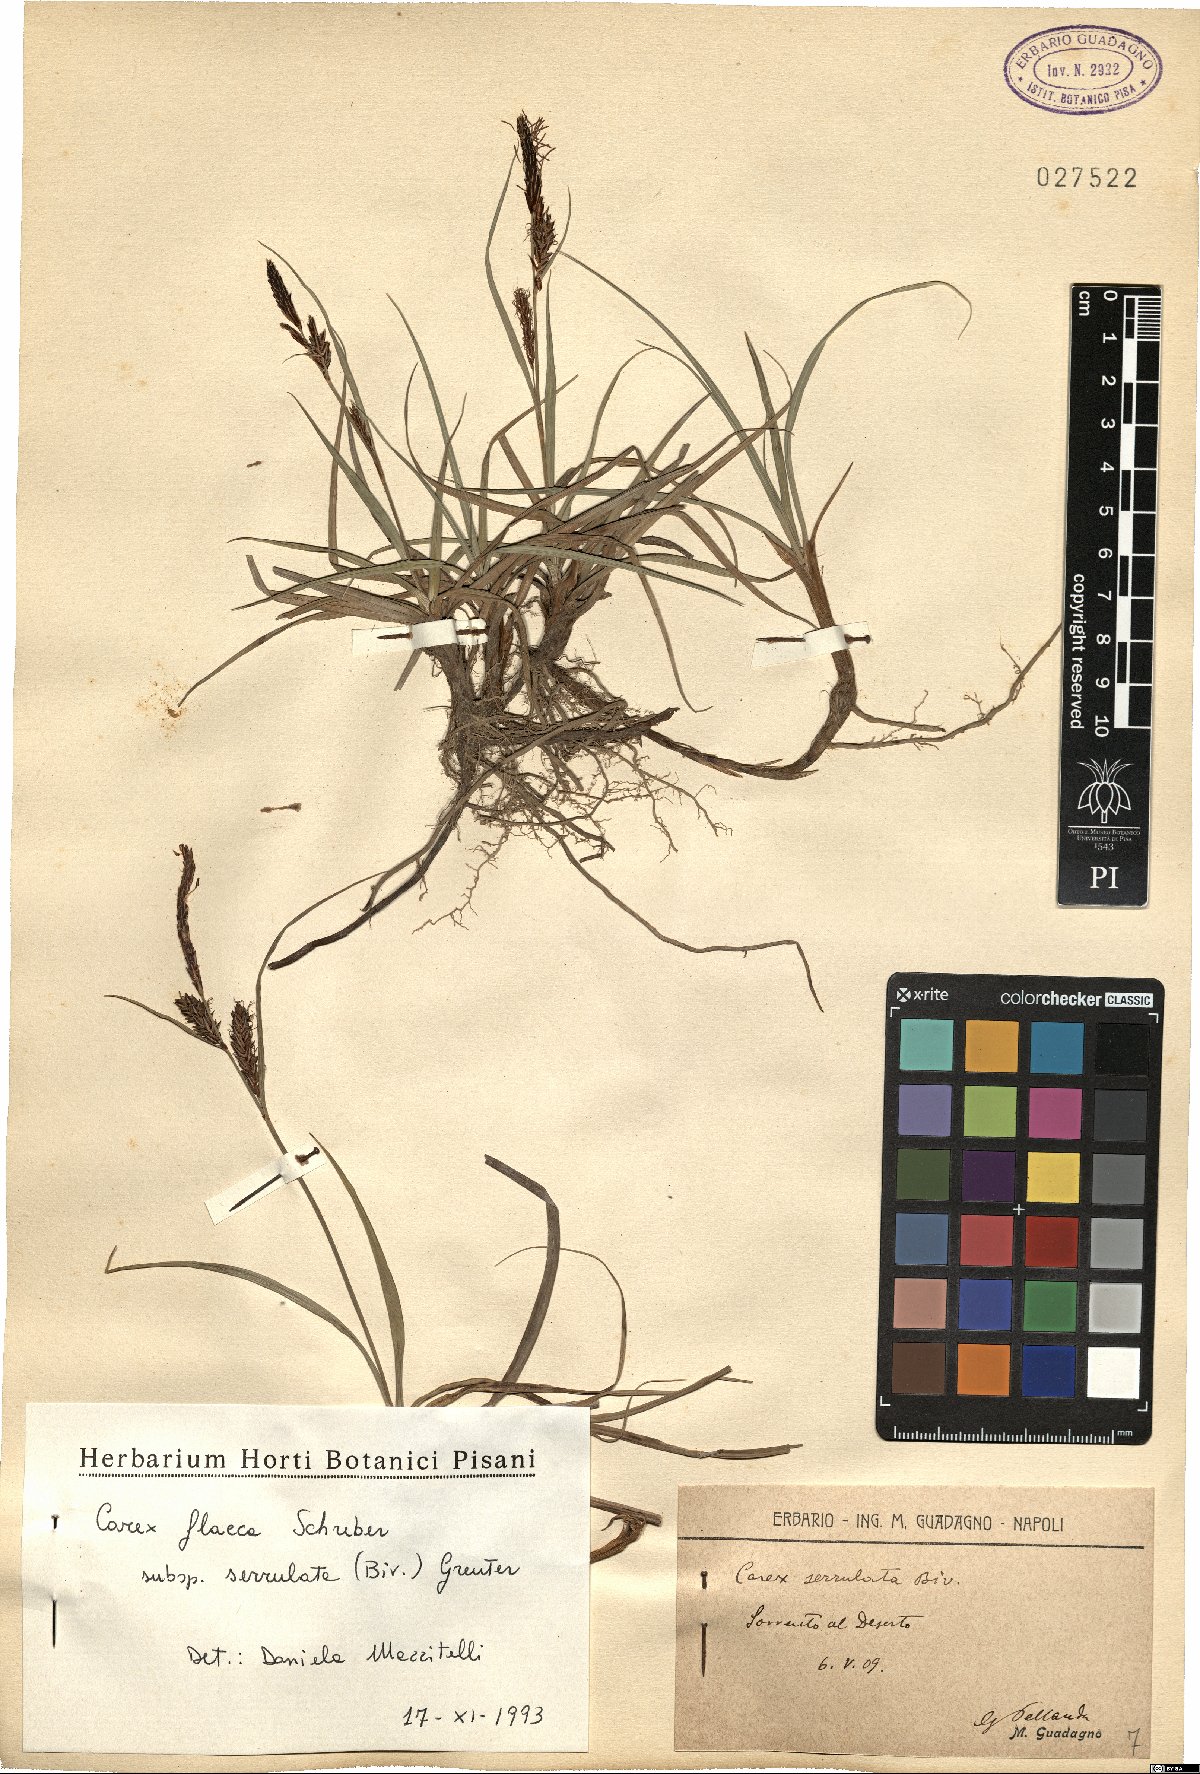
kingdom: Plantae
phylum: Tracheophyta
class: Liliopsida
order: Poales
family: Cyperaceae
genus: Carex
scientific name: Carex flacca
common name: Glaucous sedge
